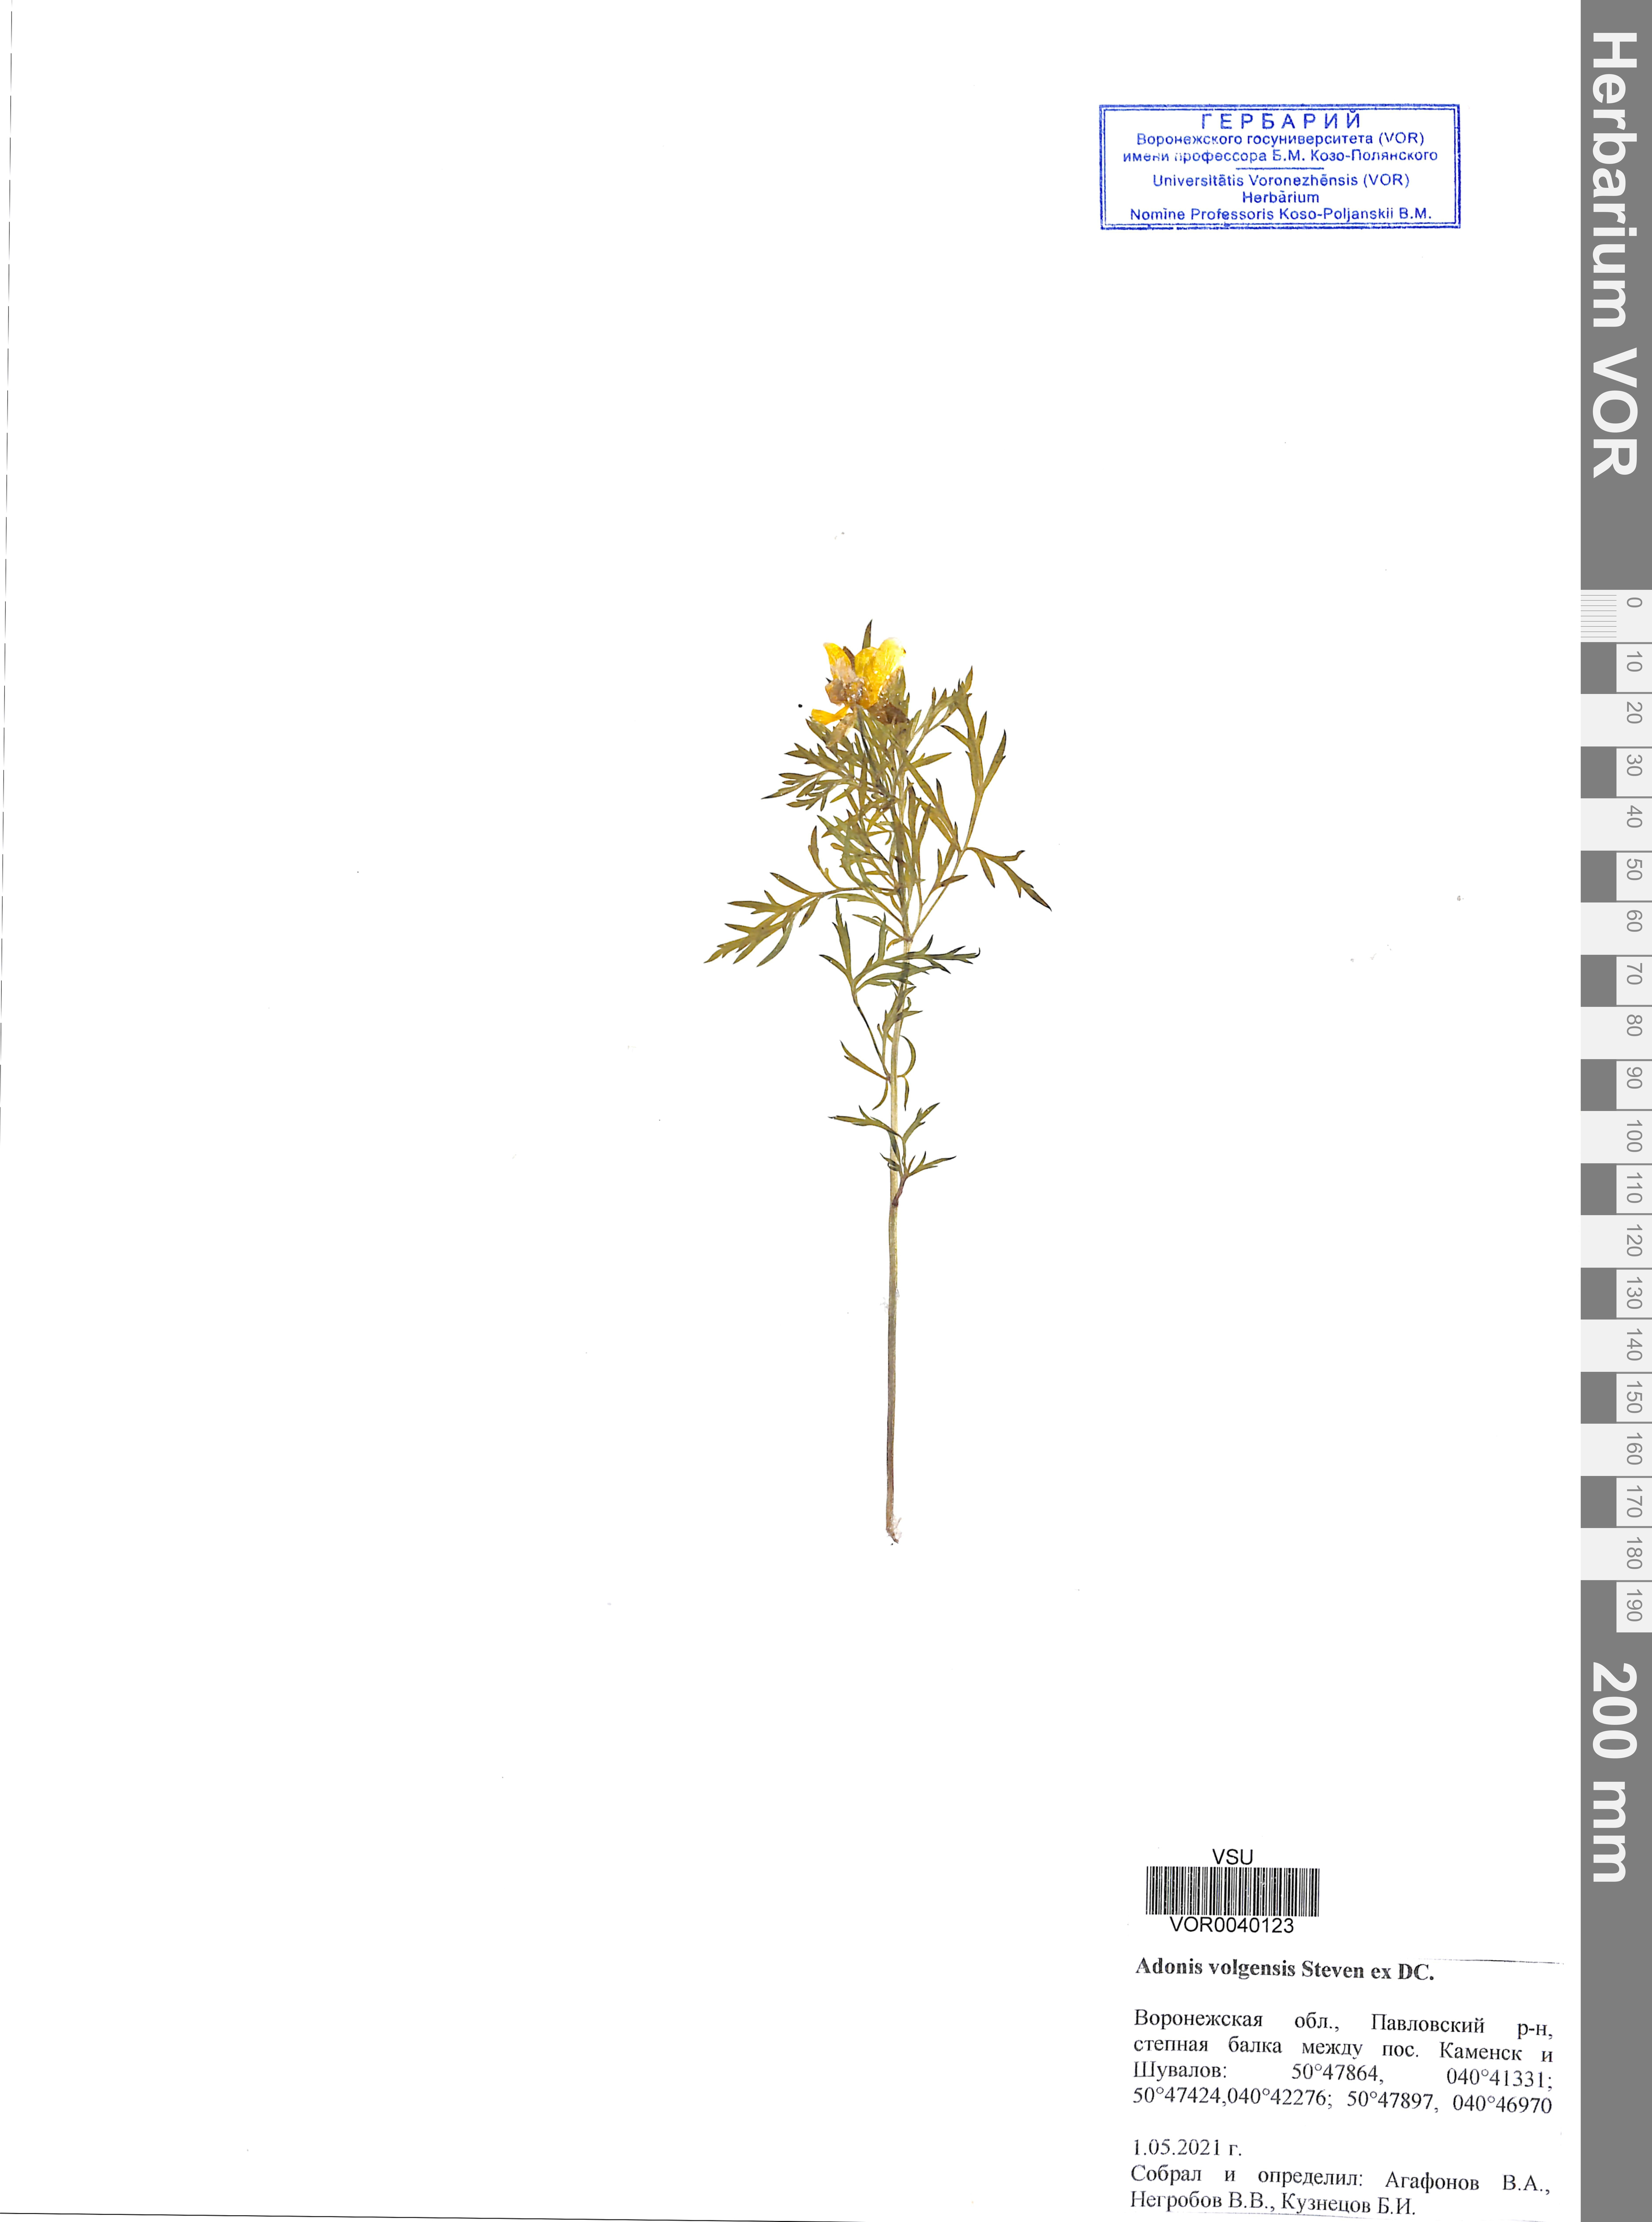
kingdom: Plantae
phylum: Tracheophyta
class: Magnoliopsida
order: Ranunculales
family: Ranunculaceae
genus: Adonis
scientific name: Adonis volgensis
